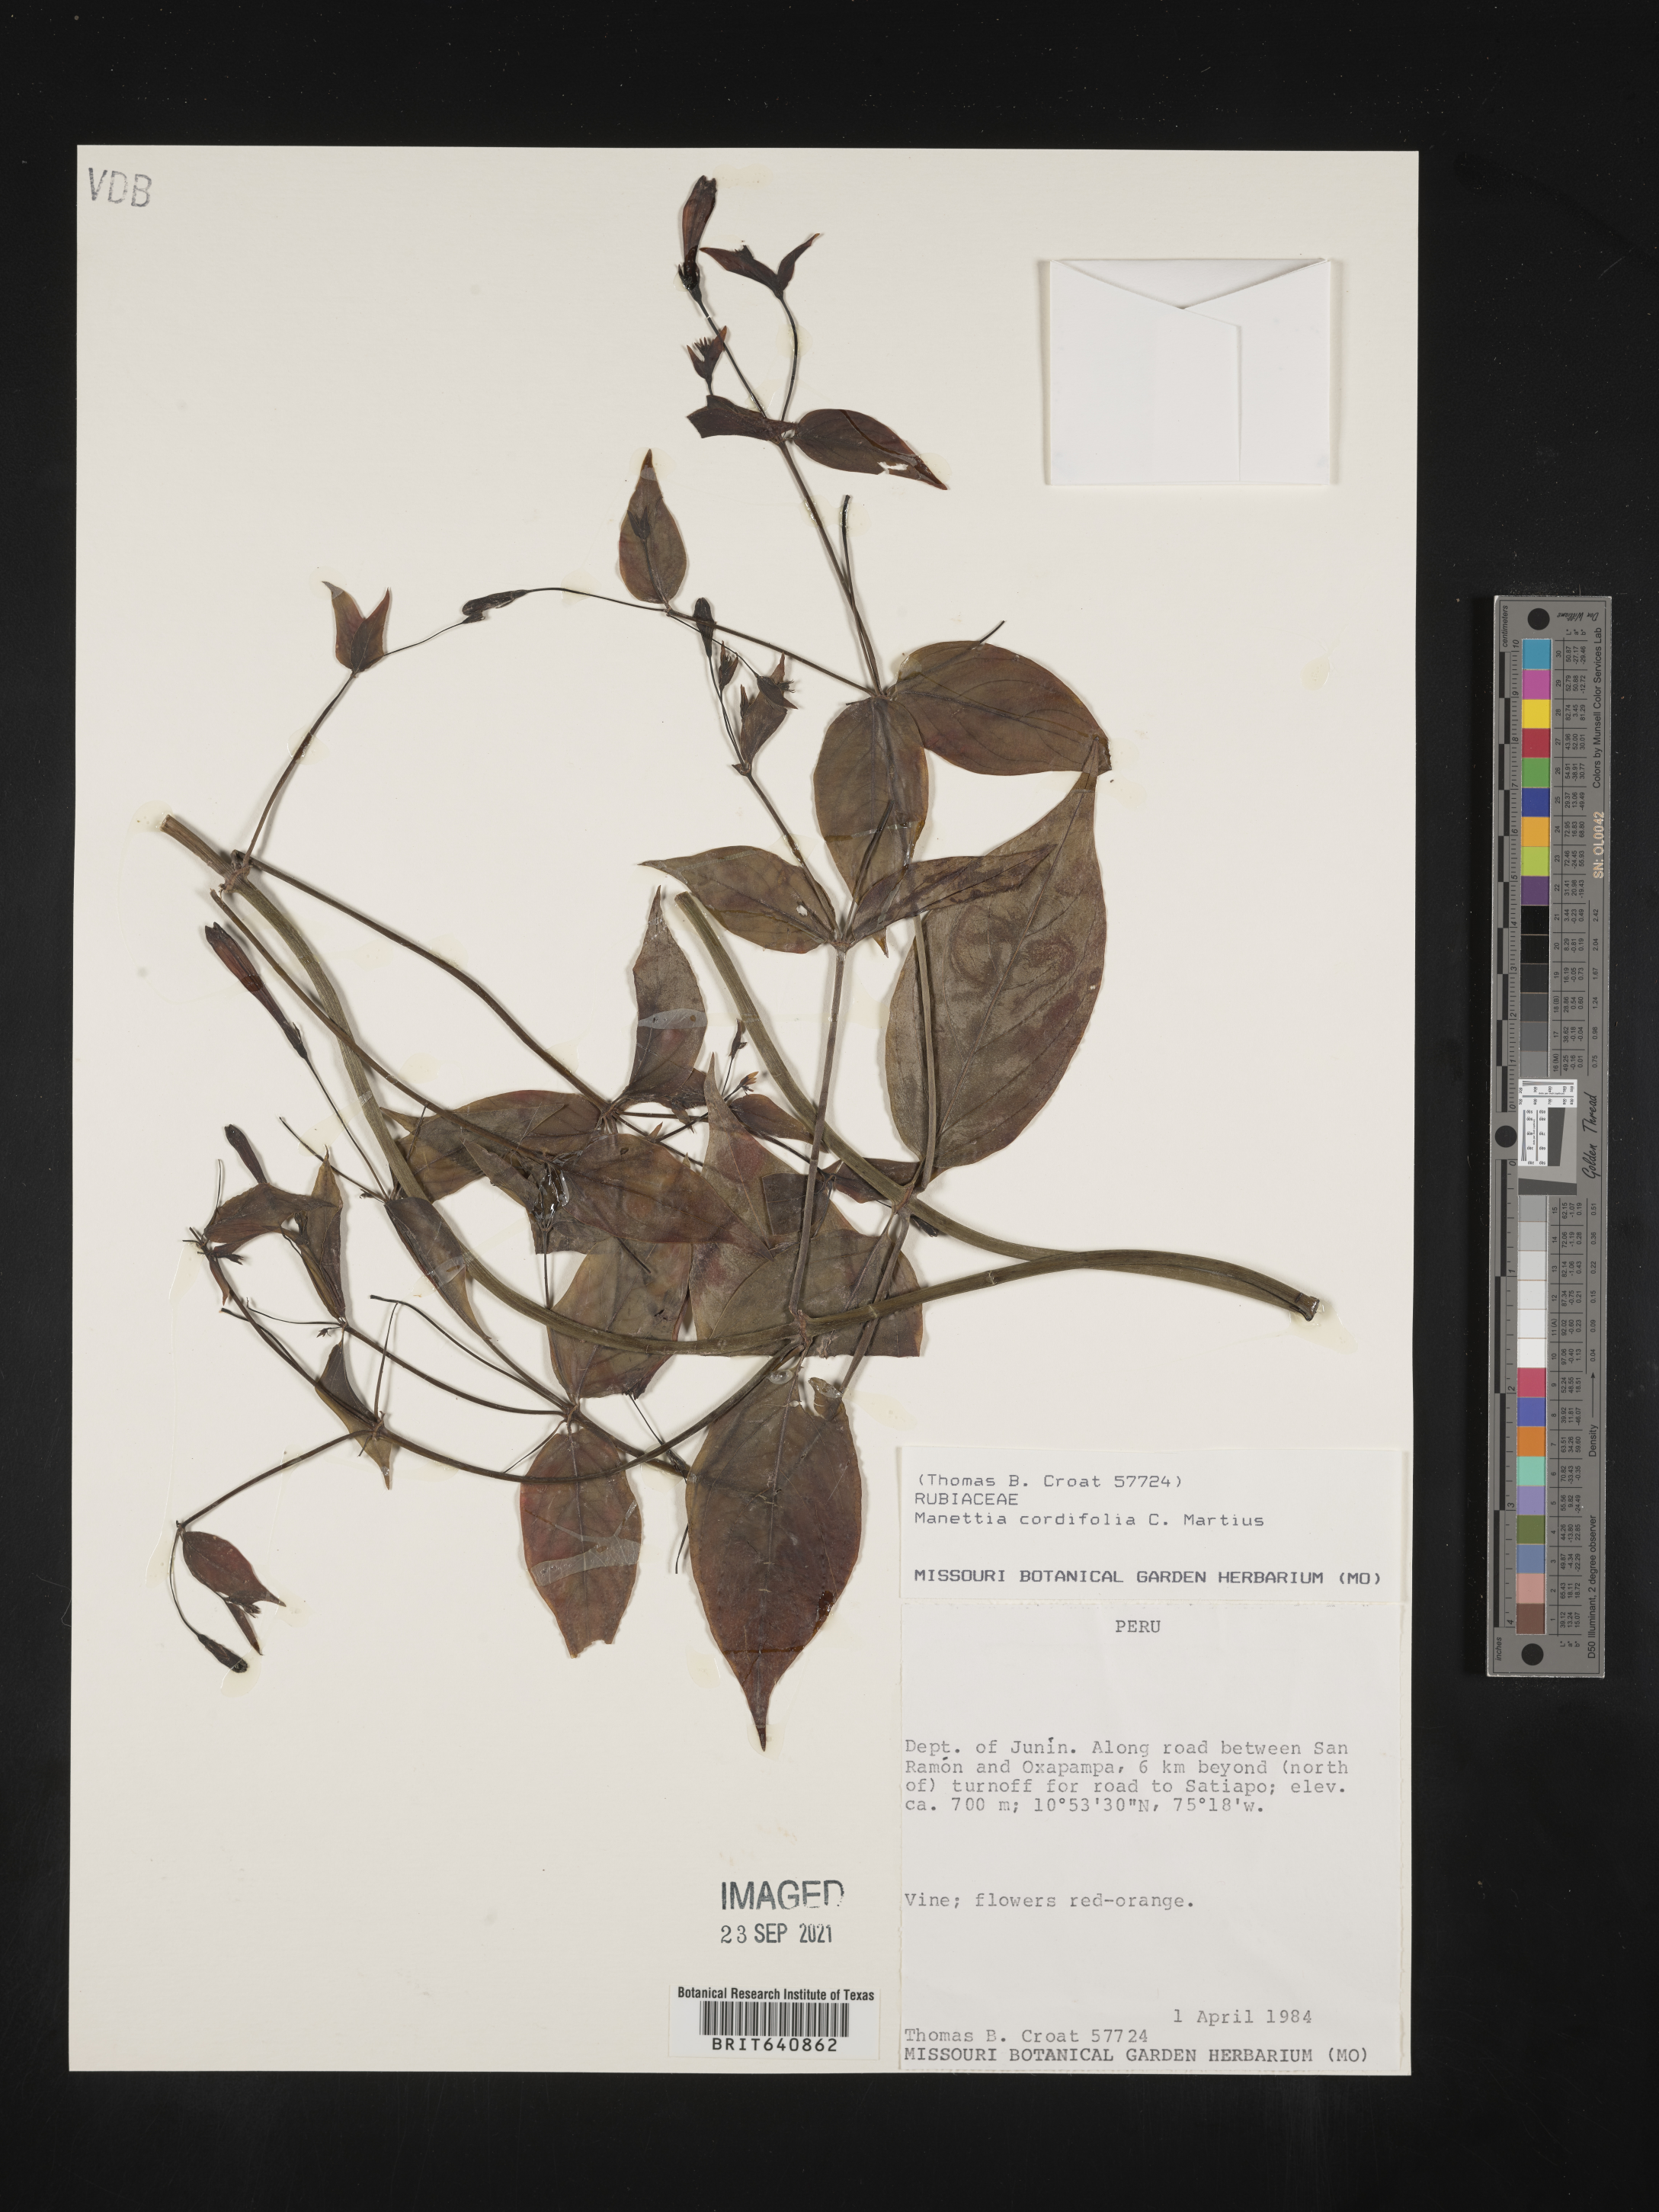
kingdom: Plantae
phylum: Tracheophyta
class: Magnoliopsida
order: Gentianales
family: Rubiaceae
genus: Manettia
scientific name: Manettia
